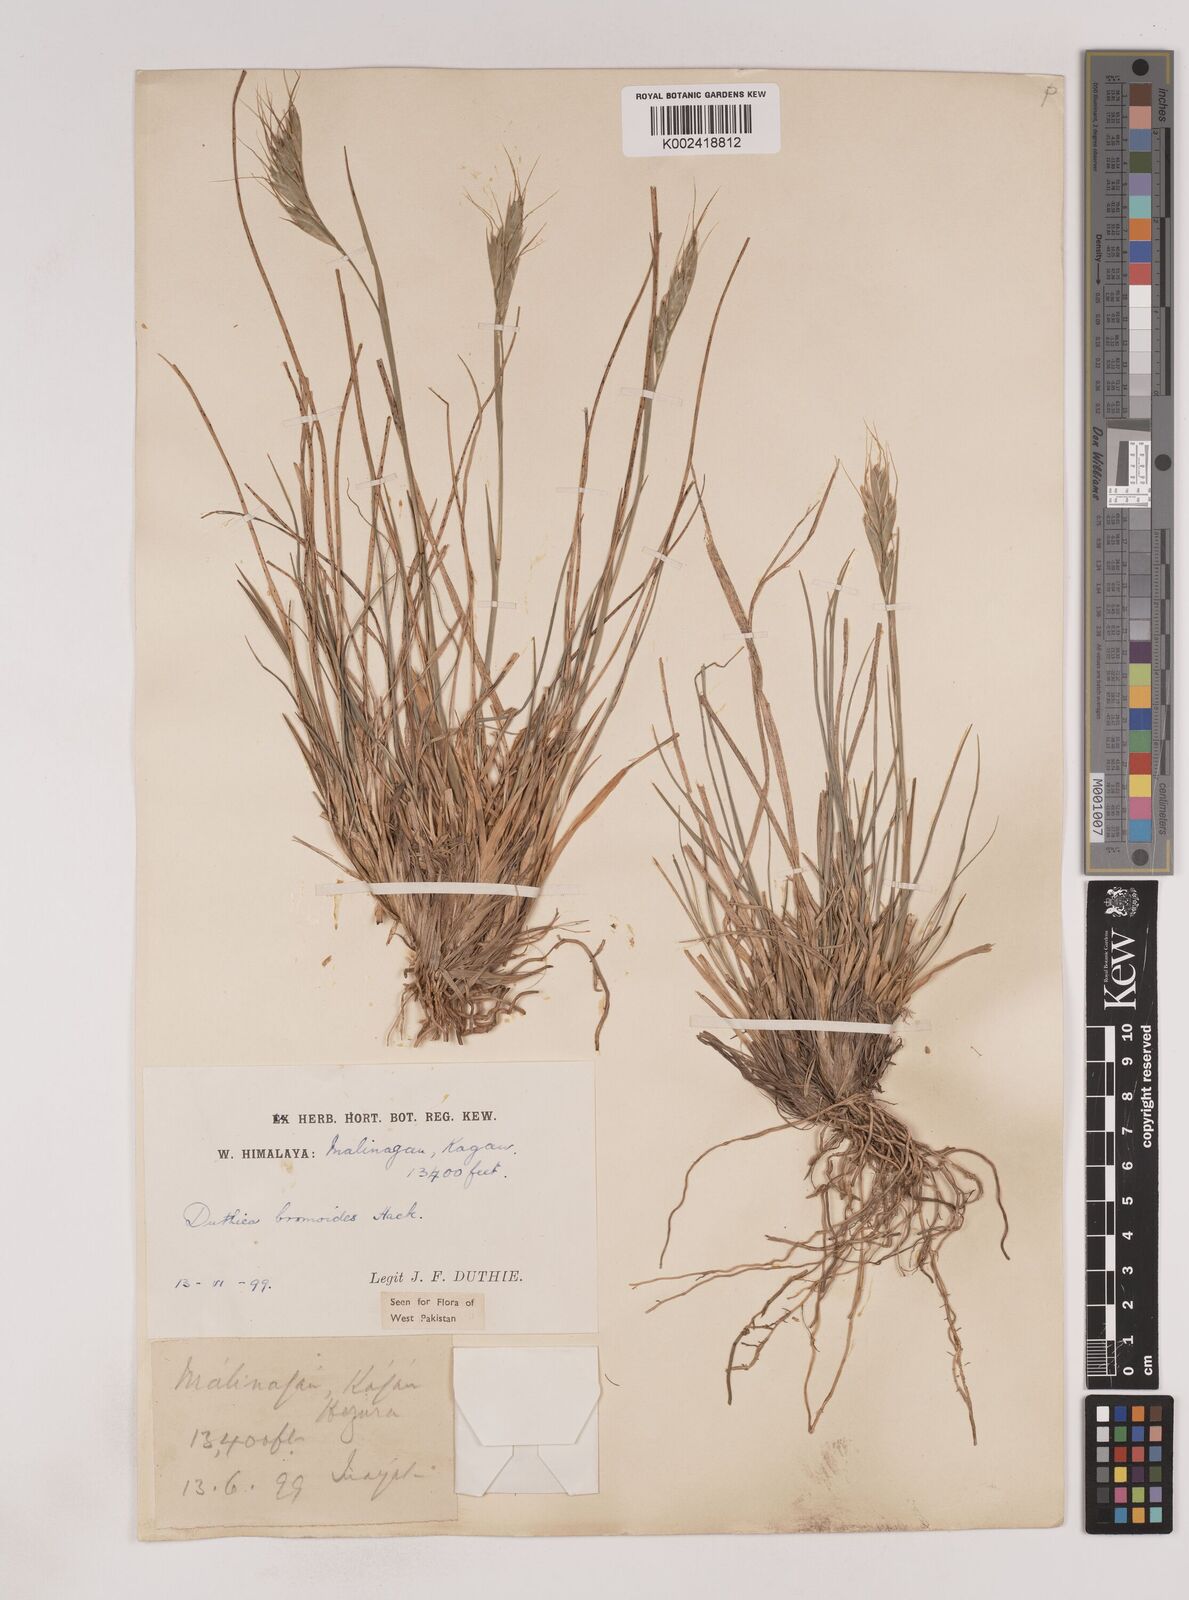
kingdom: Plantae
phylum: Tracheophyta
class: Liliopsida
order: Poales
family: Poaceae
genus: Duthiea
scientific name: Duthiea bromoides
